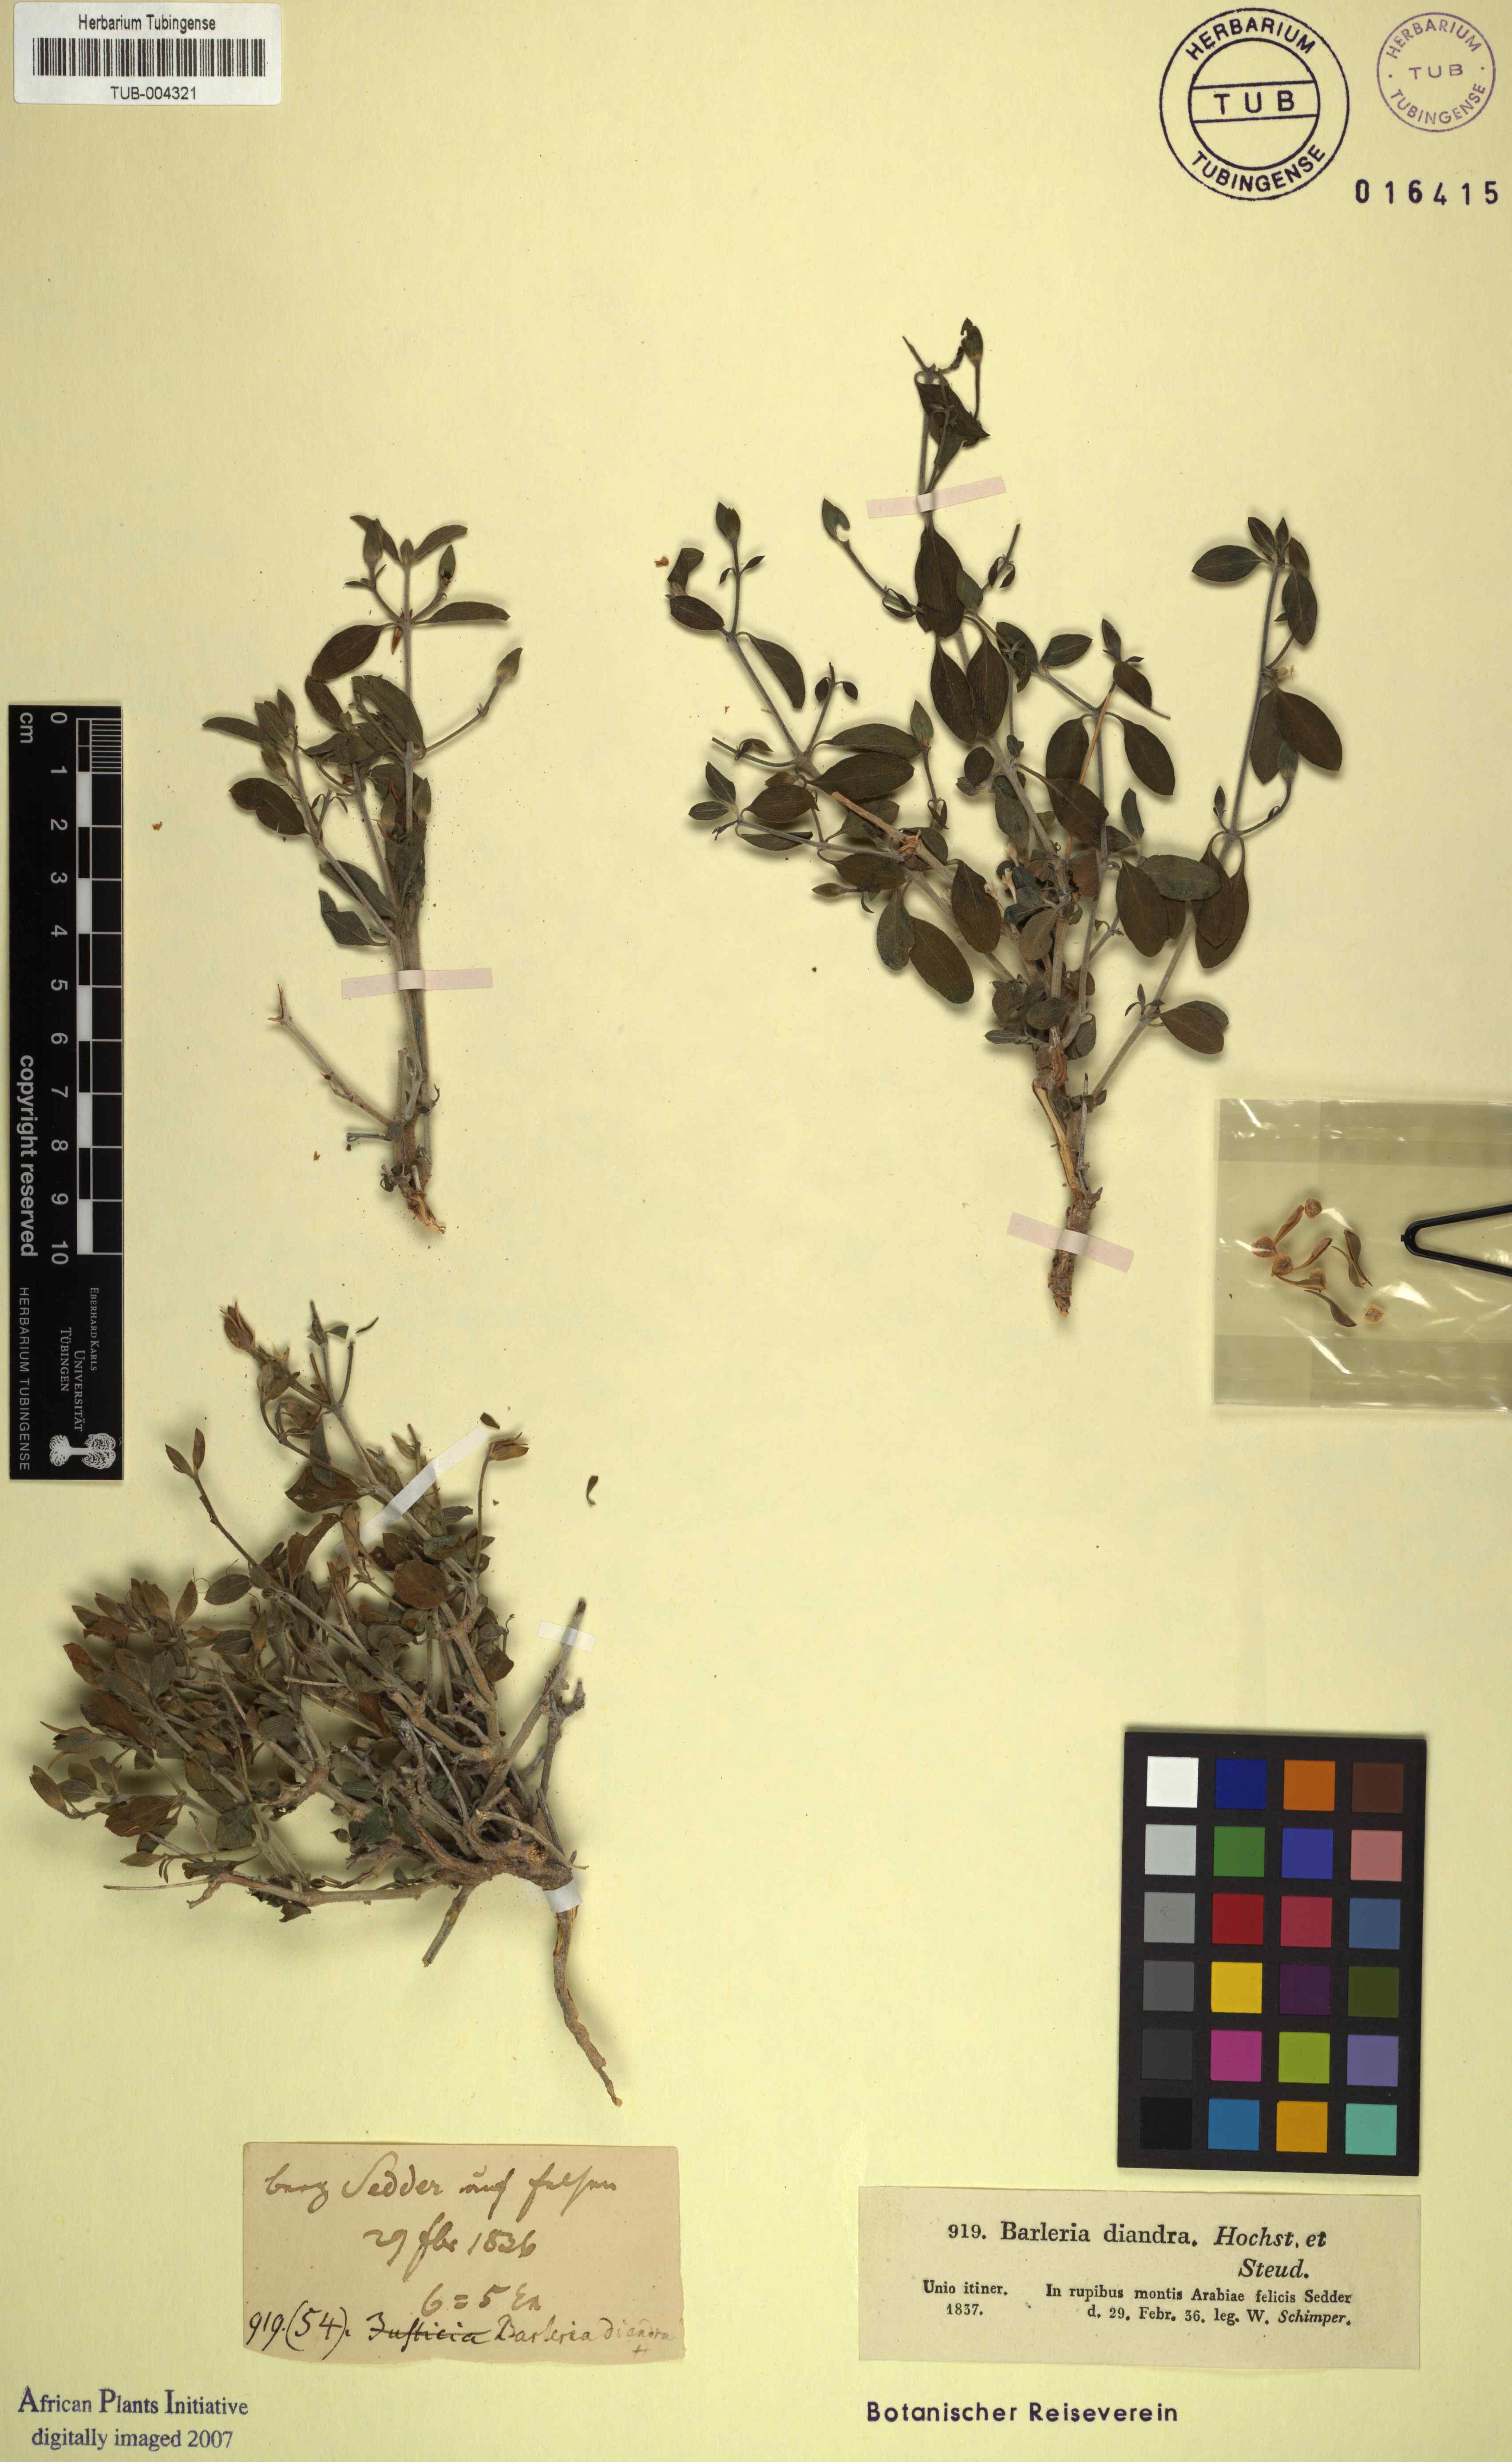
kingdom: Plantae
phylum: Tracheophyta
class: Magnoliopsida
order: Lamiales
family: Acanthaceae
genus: Barleria
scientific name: Barleria hochstetteri
